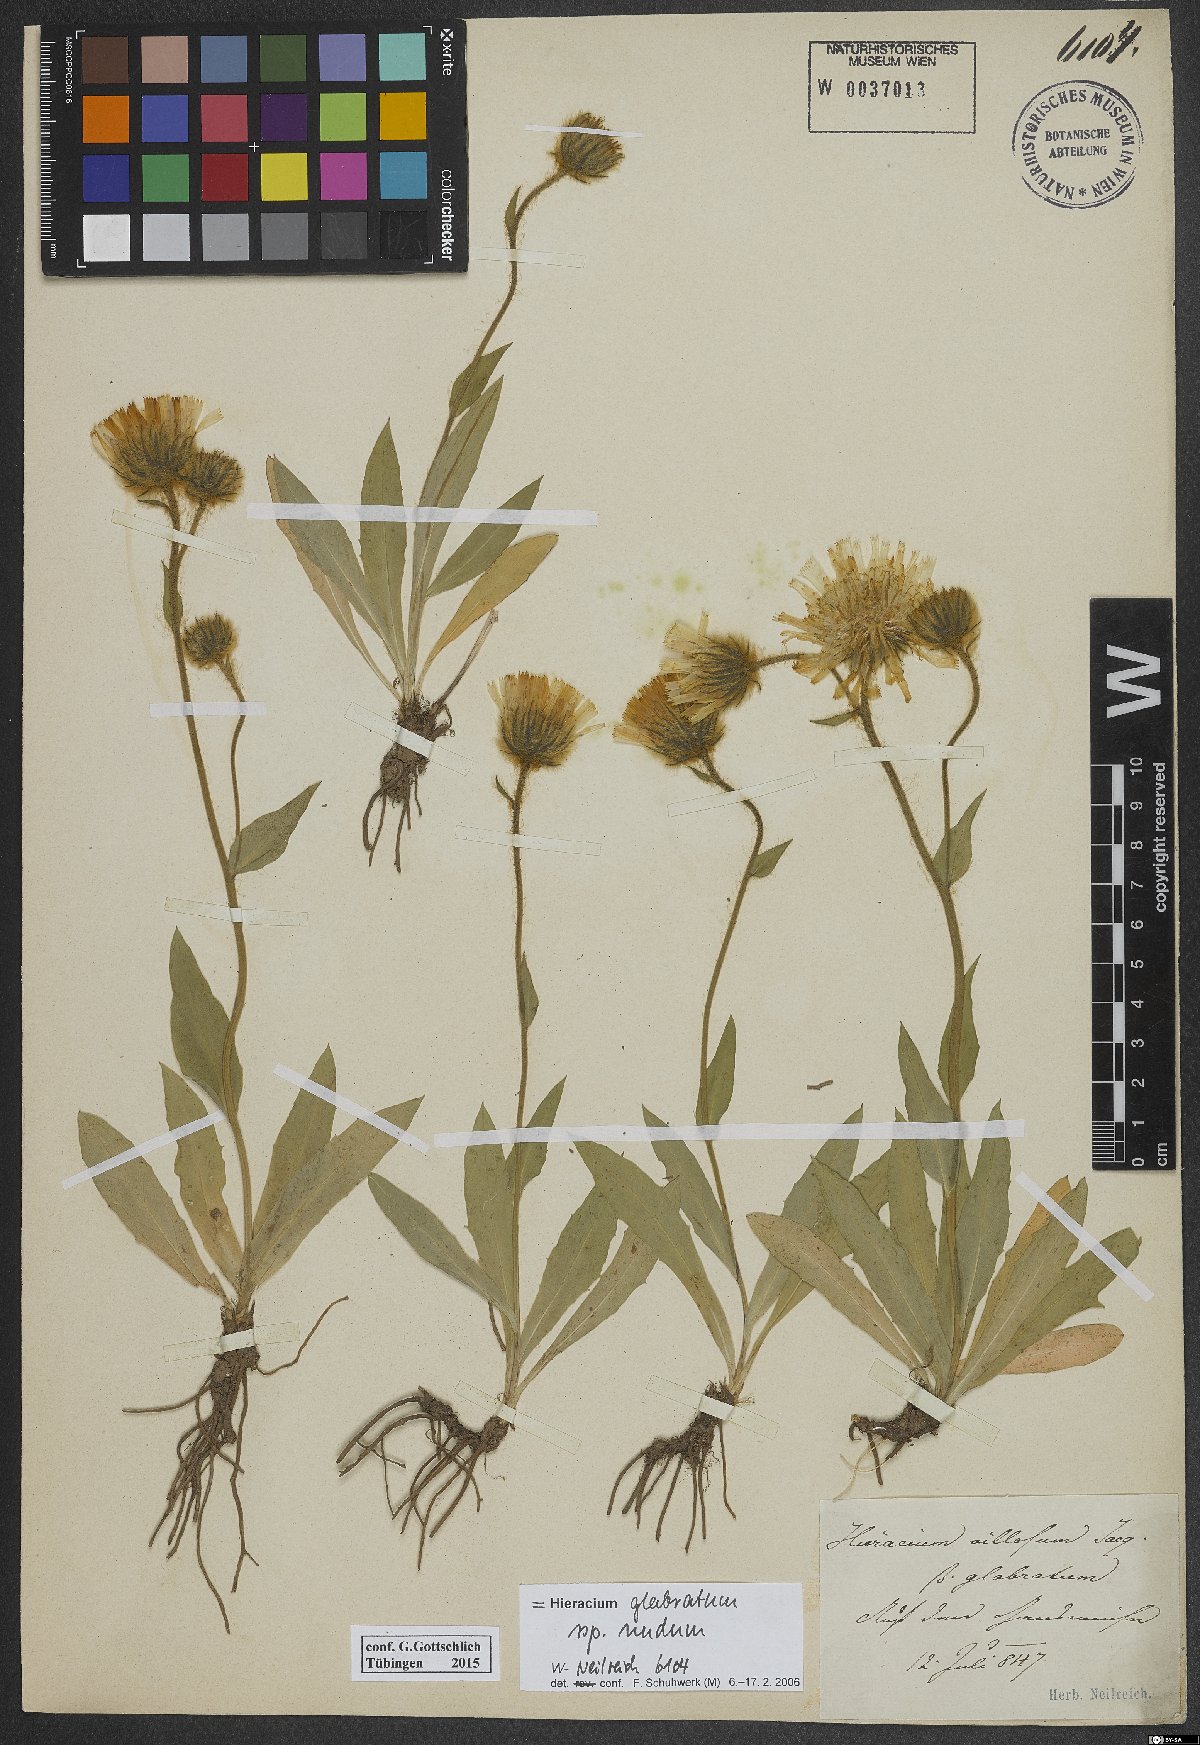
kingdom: Plantae
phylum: Tracheophyta
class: Magnoliopsida
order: Asterales
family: Asteraceae
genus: Hieracium
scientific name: Hieracium glabratum
